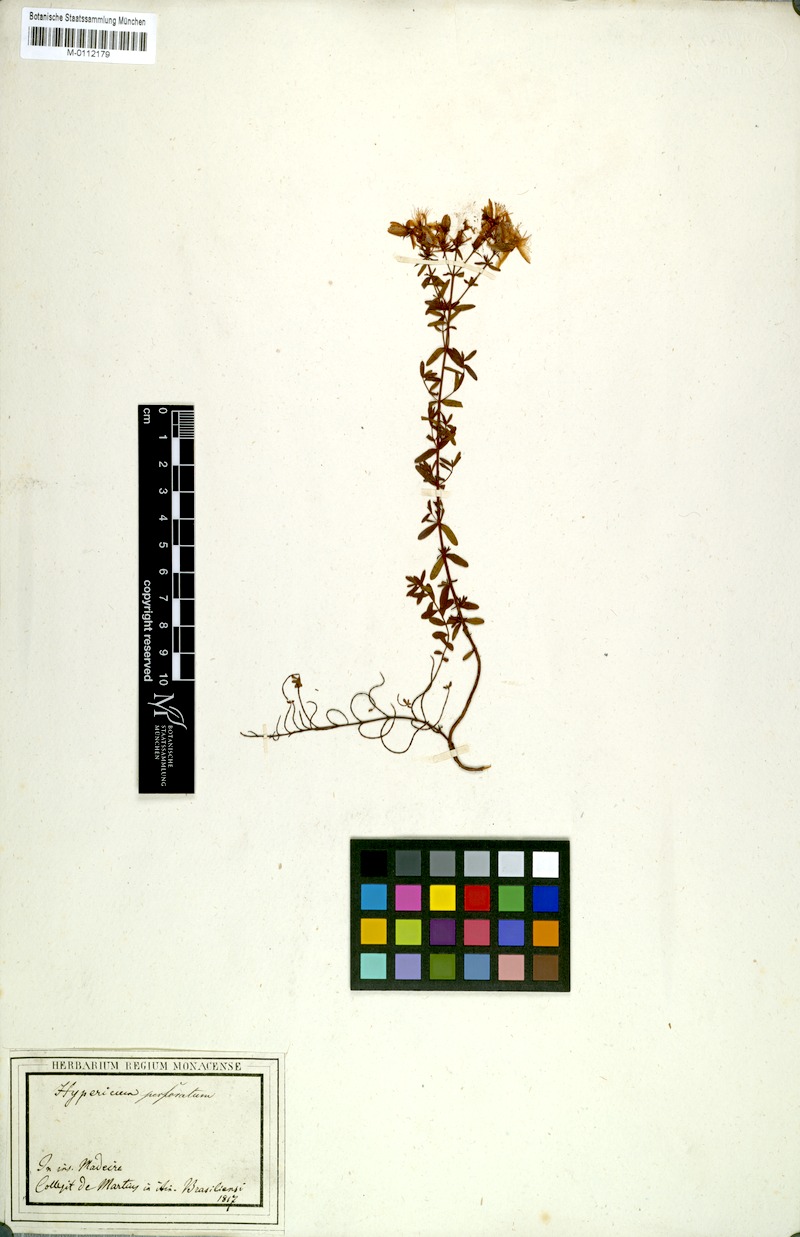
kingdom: Plantae
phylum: Tracheophyta
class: Magnoliopsida
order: Malpighiales
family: Hypericaceae
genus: Hypericum
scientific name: Hypericum perforatum
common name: Common st. johnswort
